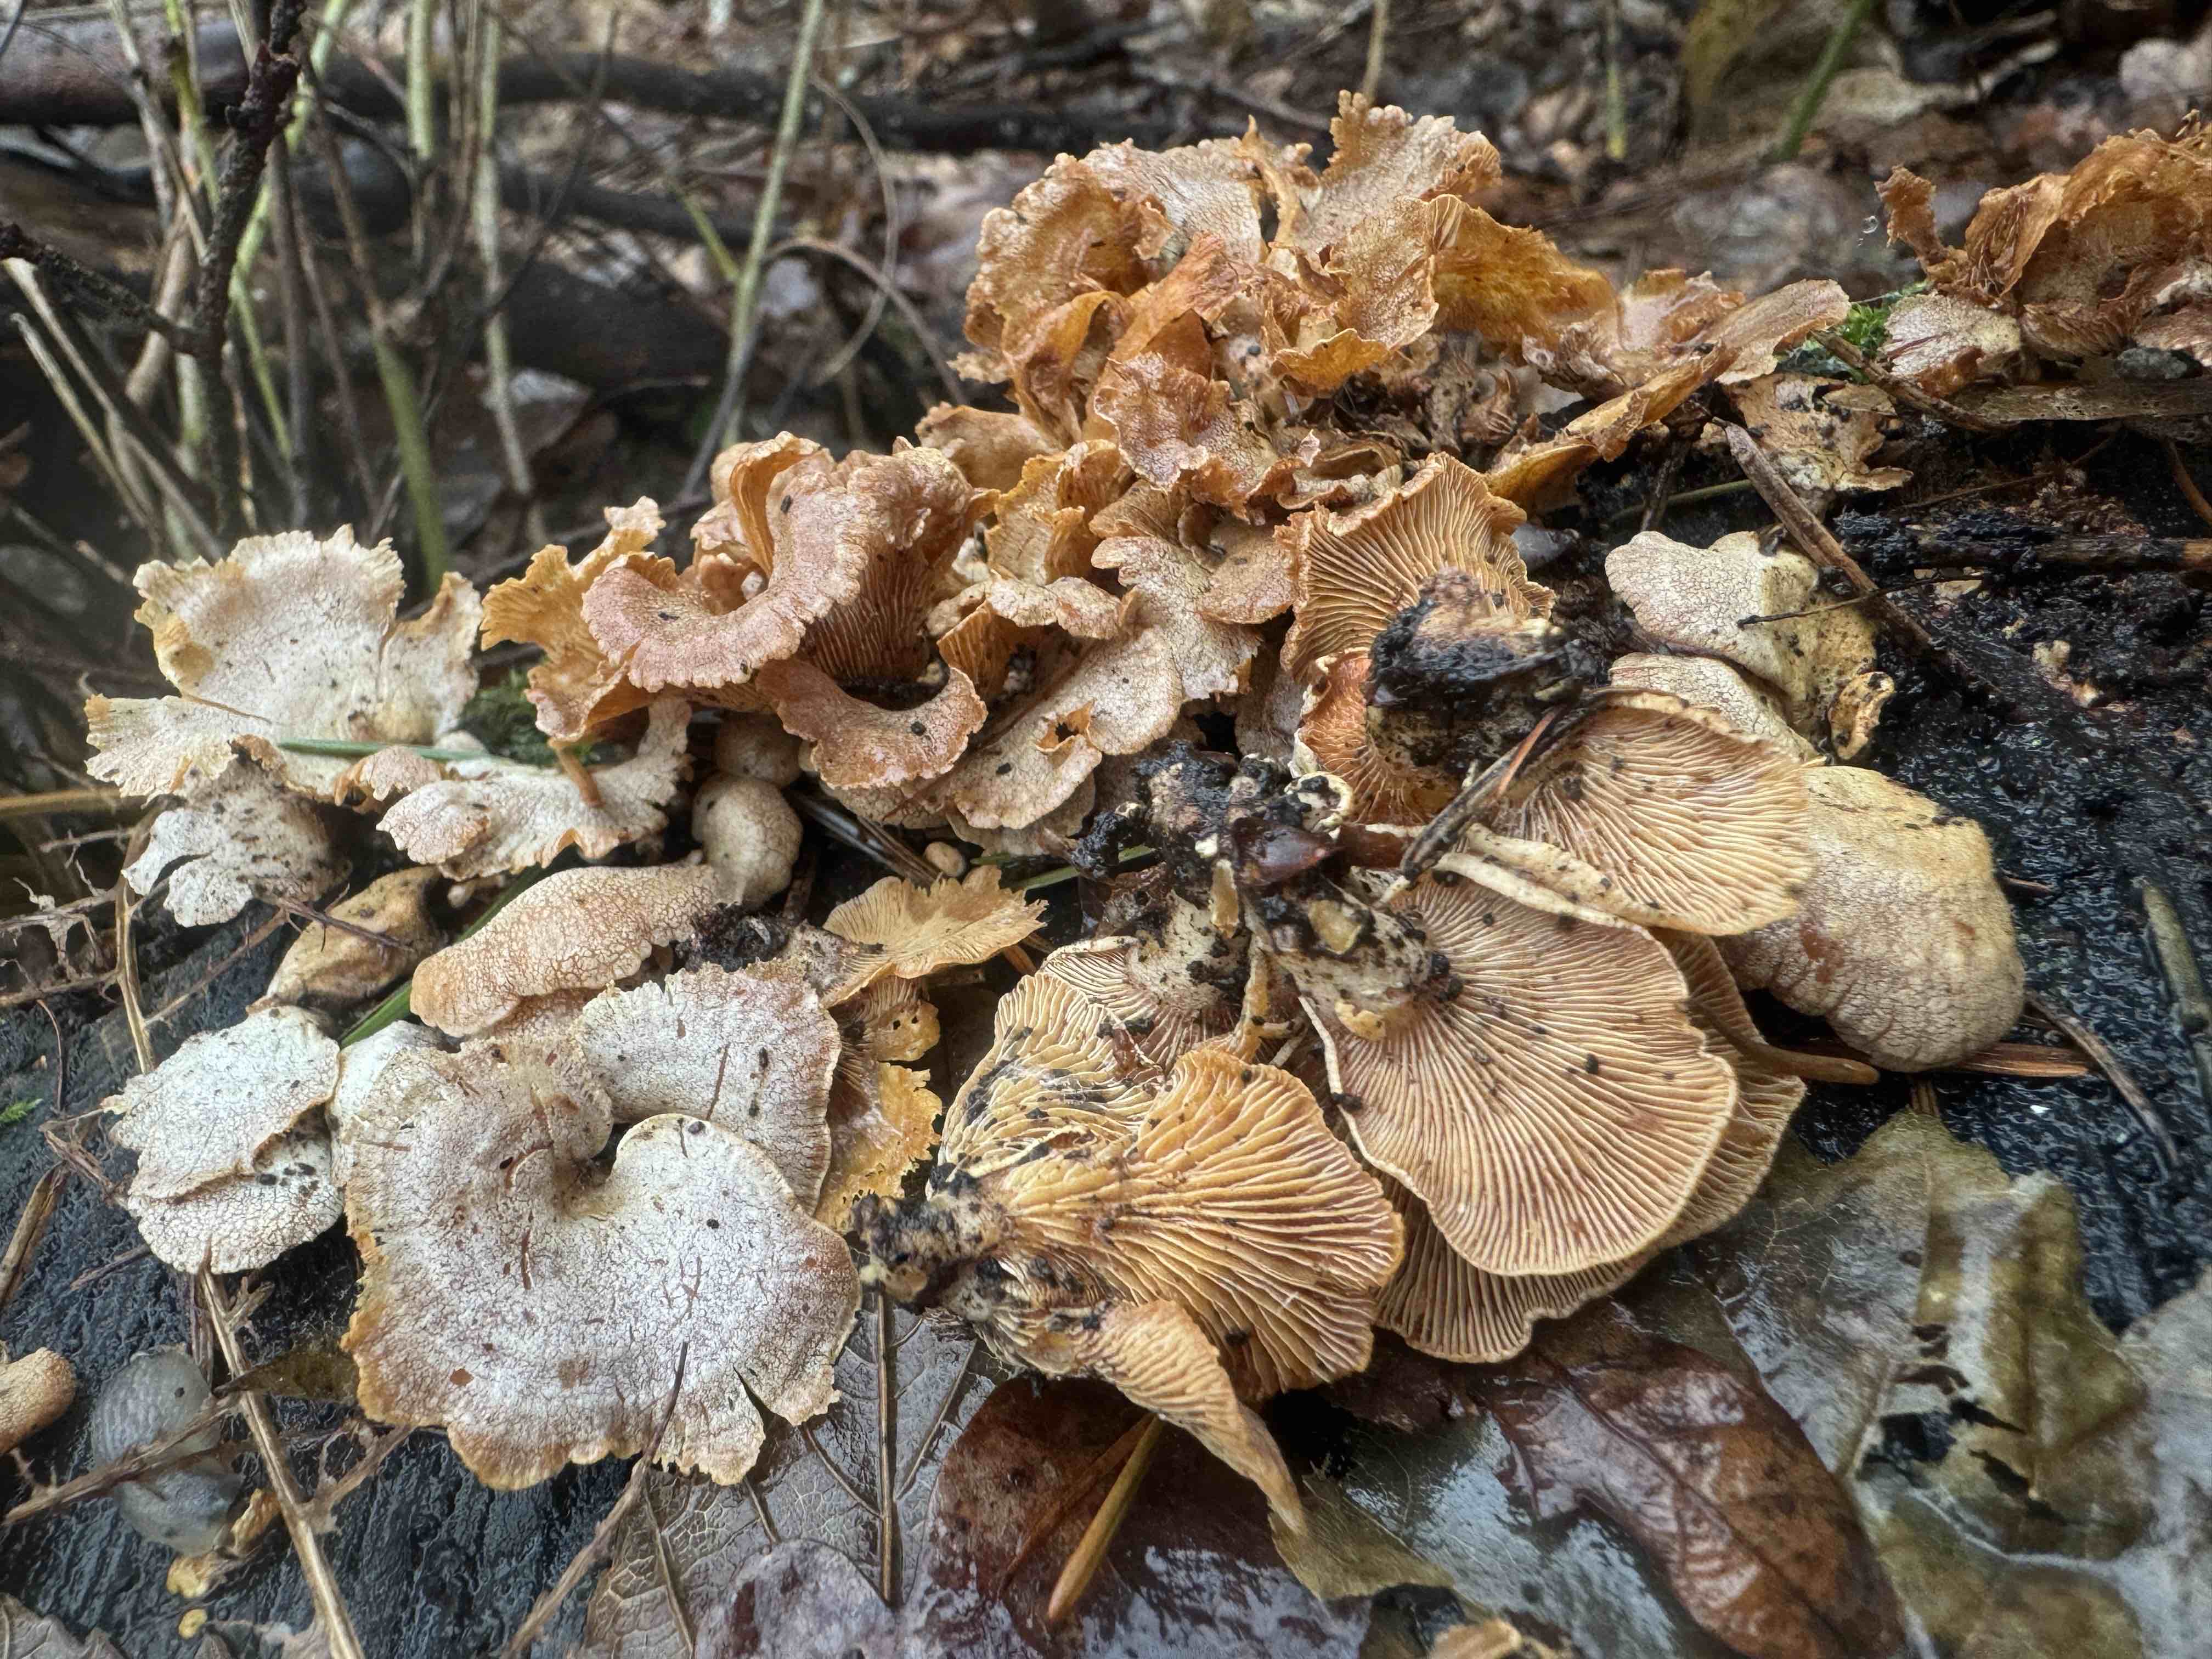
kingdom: Fungi
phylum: Basidiomycota
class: Agaricomycetes
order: Agaricales
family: Mycenaceae
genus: Panellus
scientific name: Panellus stipticus
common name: kliddet epaulethat
